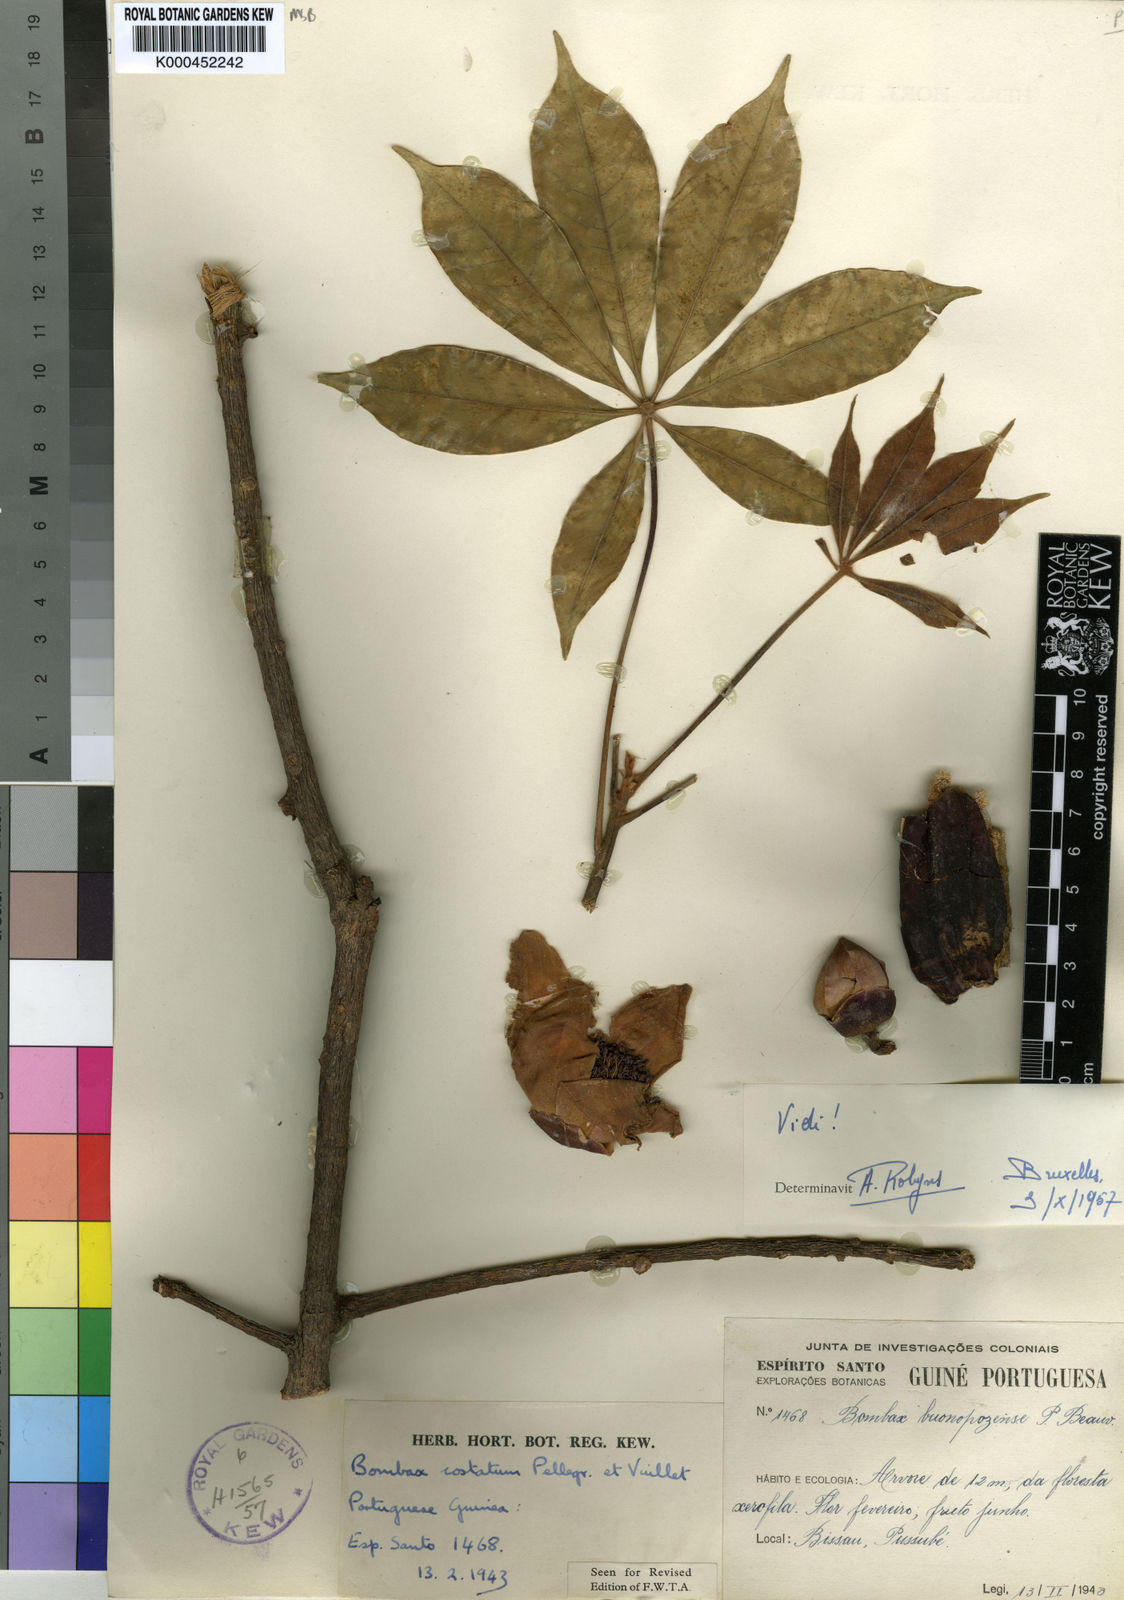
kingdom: Plantae
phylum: Tracheophyta
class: Magnoliopsida
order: Malvales
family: Malvaceae
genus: Bombax
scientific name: Bombax costatum
